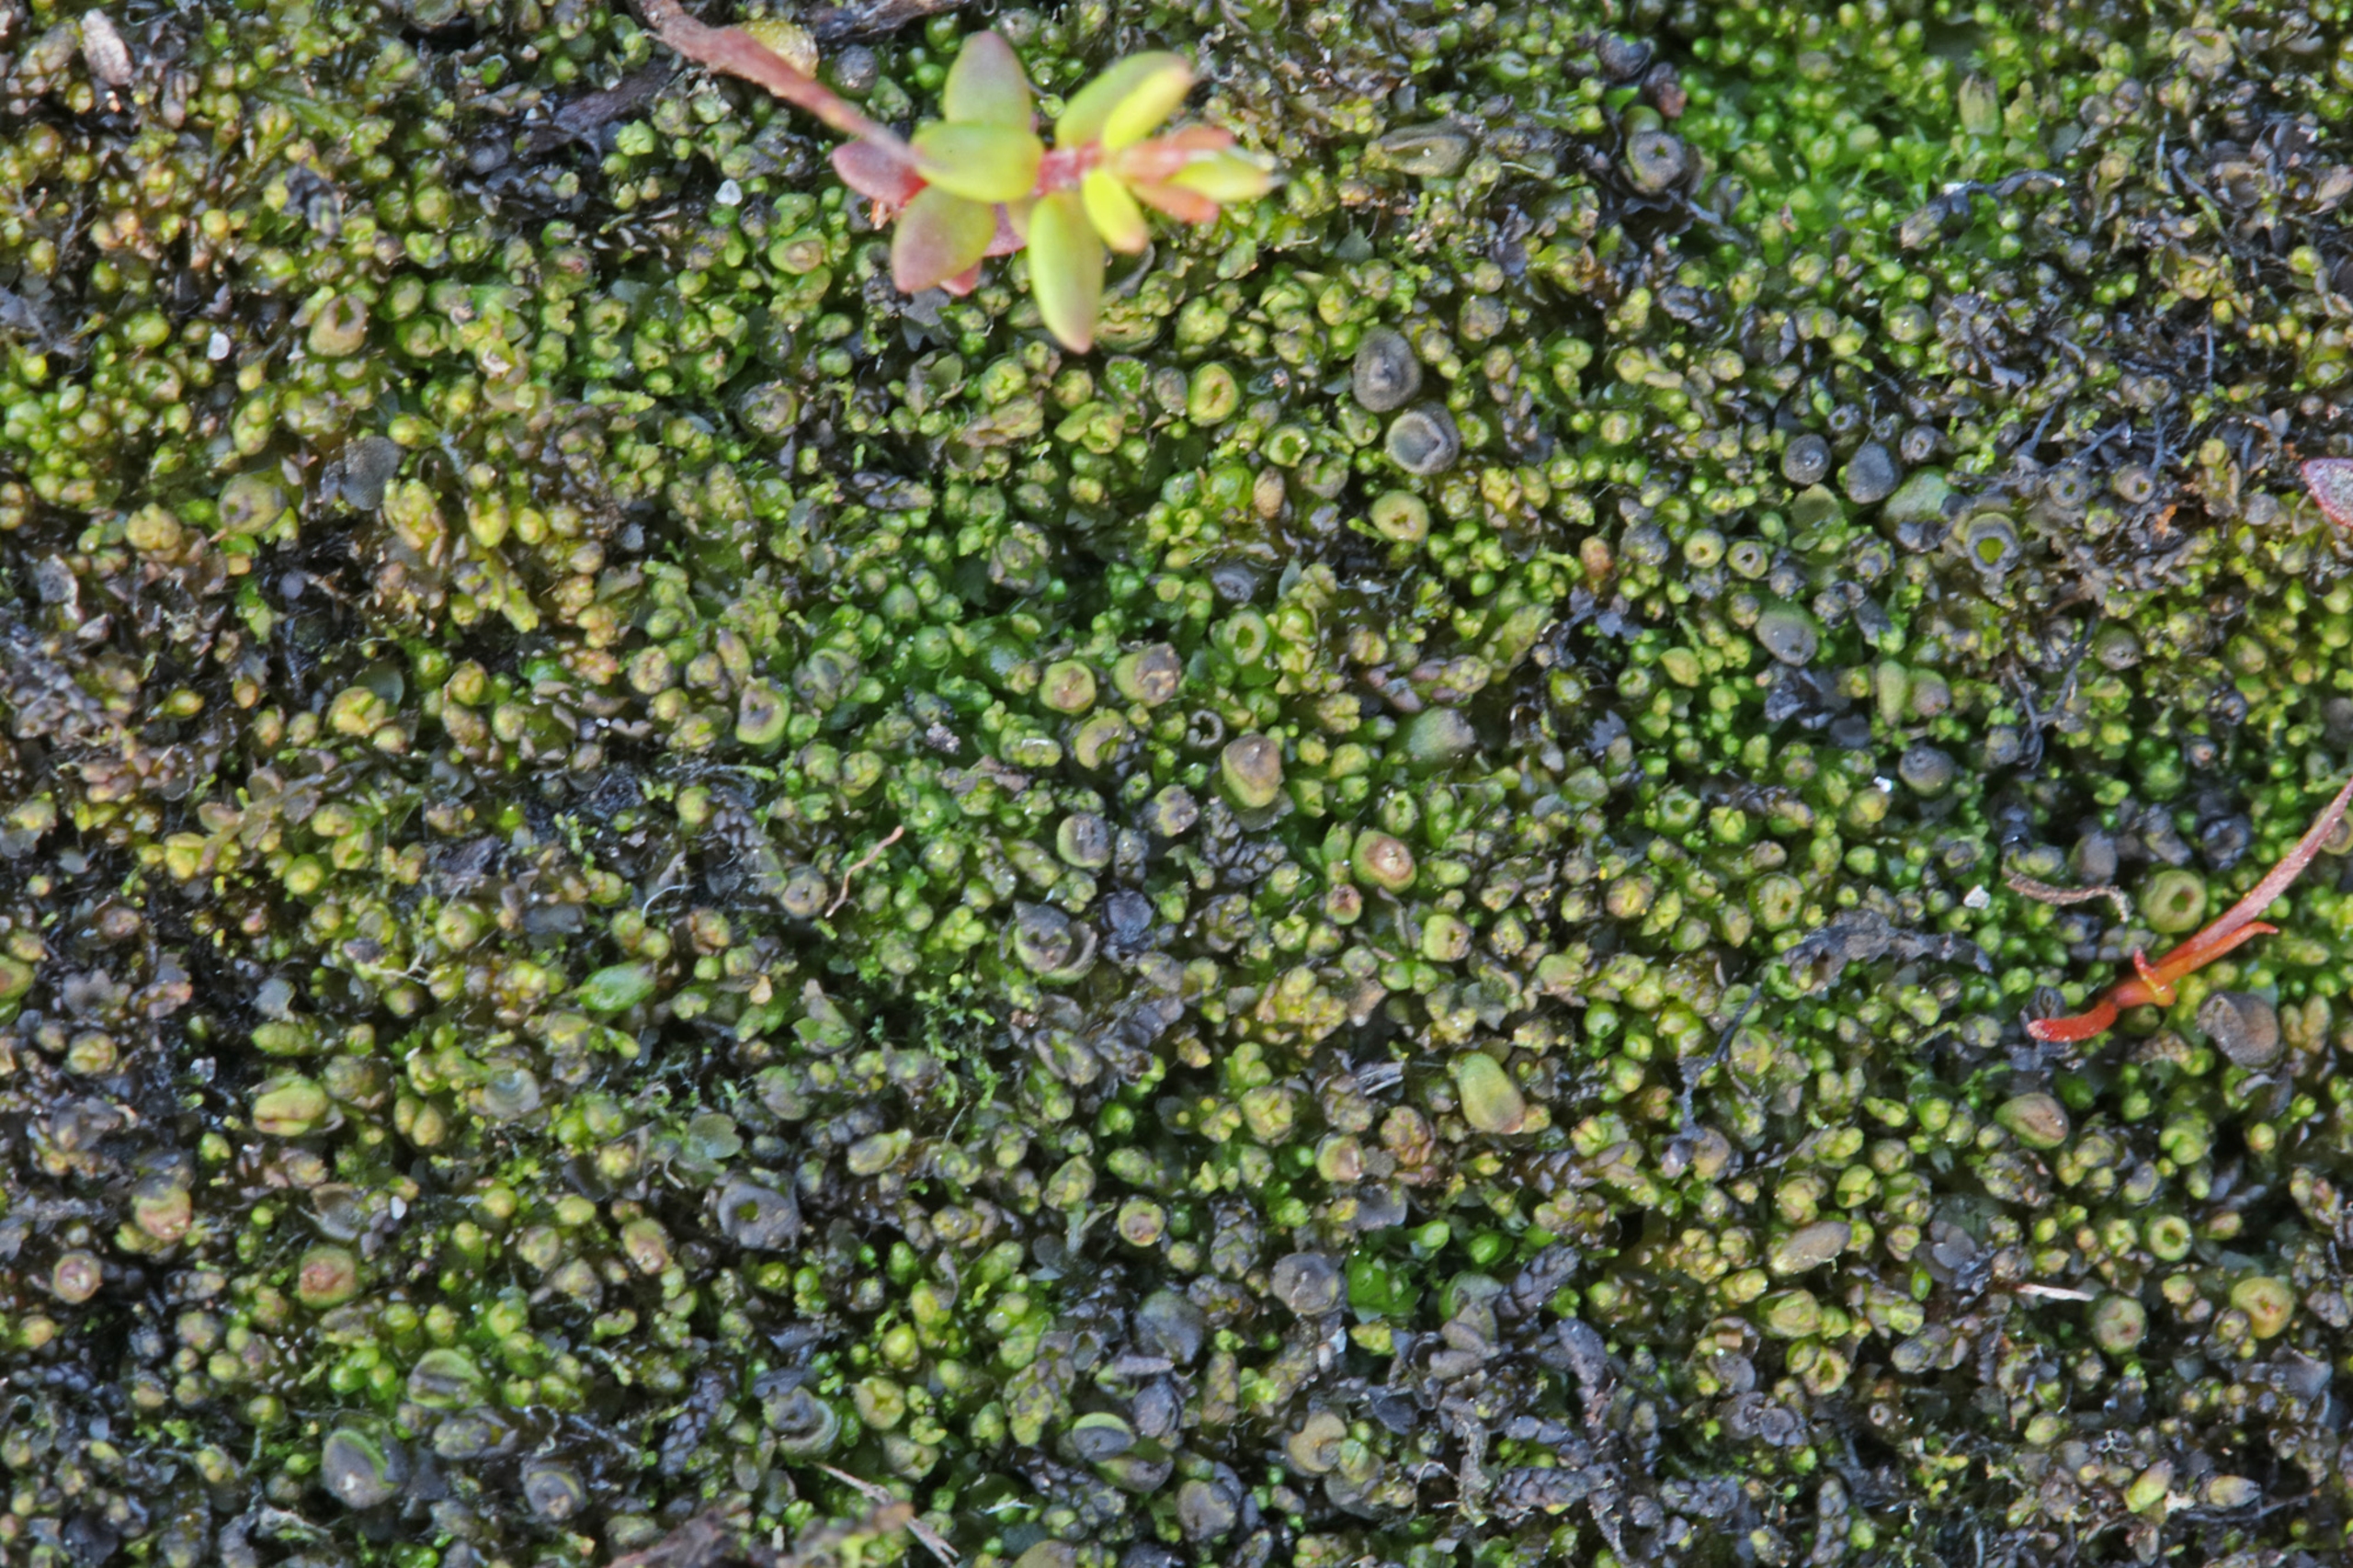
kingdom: Plantae
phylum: Marchantiophyta
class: Jungermanniopsida
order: Jungermanniales
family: Anastrophyllaceae
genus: Gymnocolea
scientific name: Gymnocolea inflata
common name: Opblæst blæremos
